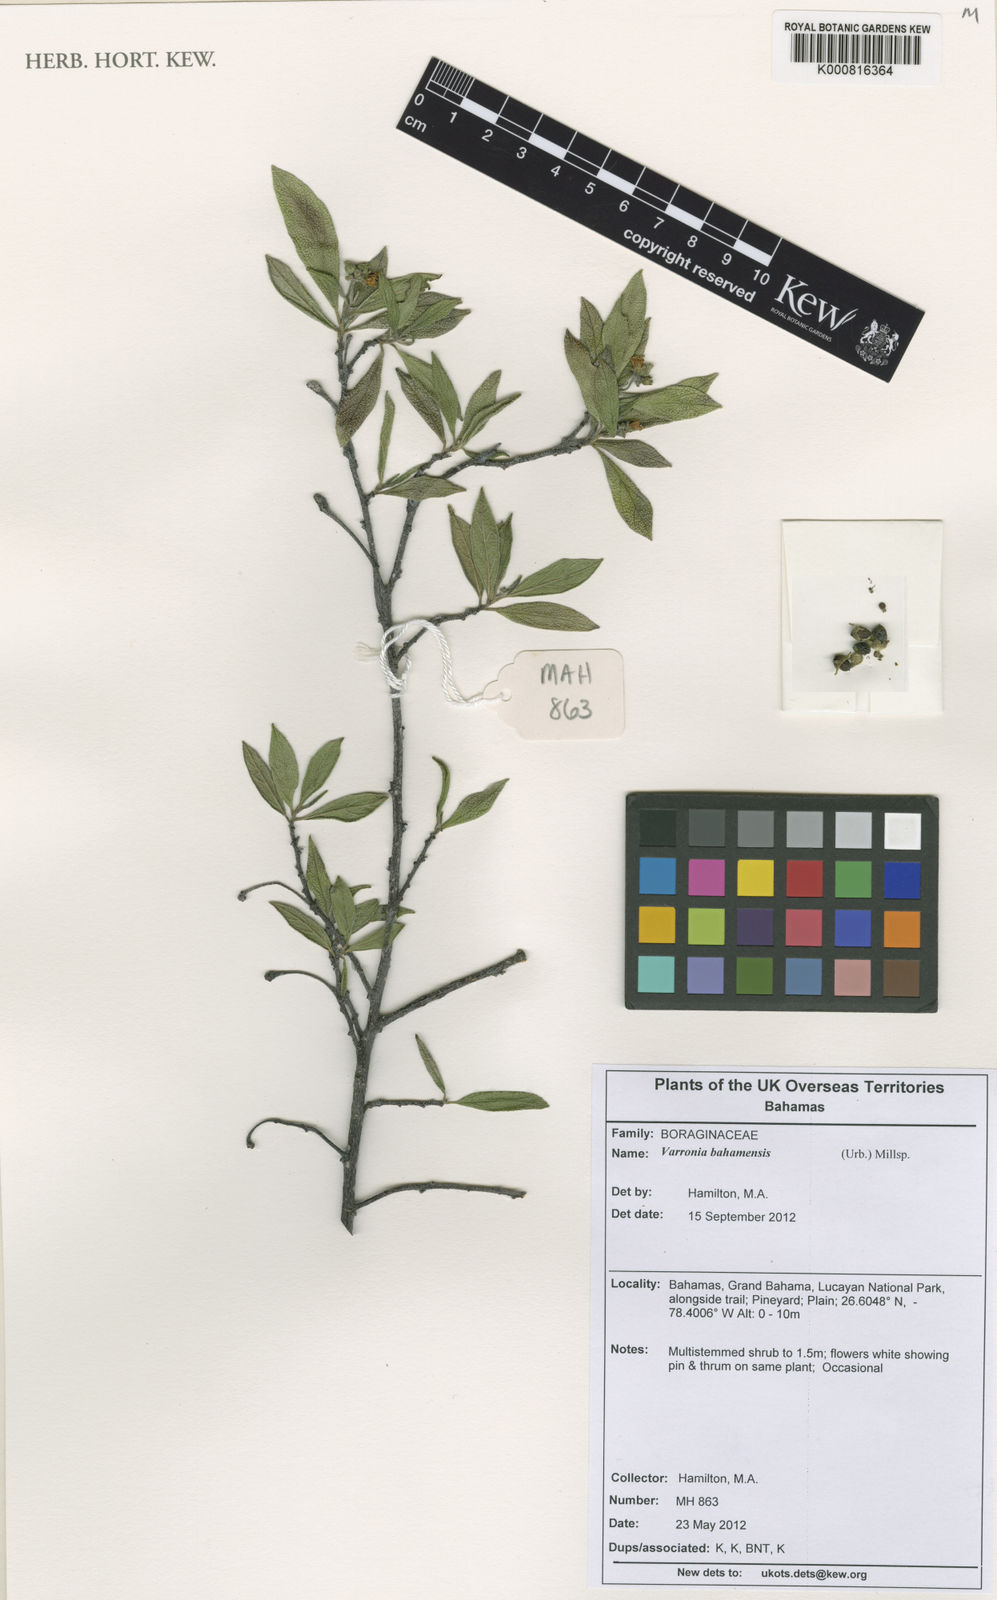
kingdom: Plantae
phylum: Tracheophyta
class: Magnoliopsida
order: Boraginales
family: Cordiaceae
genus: Cordia
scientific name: Cordia rickseckeri
